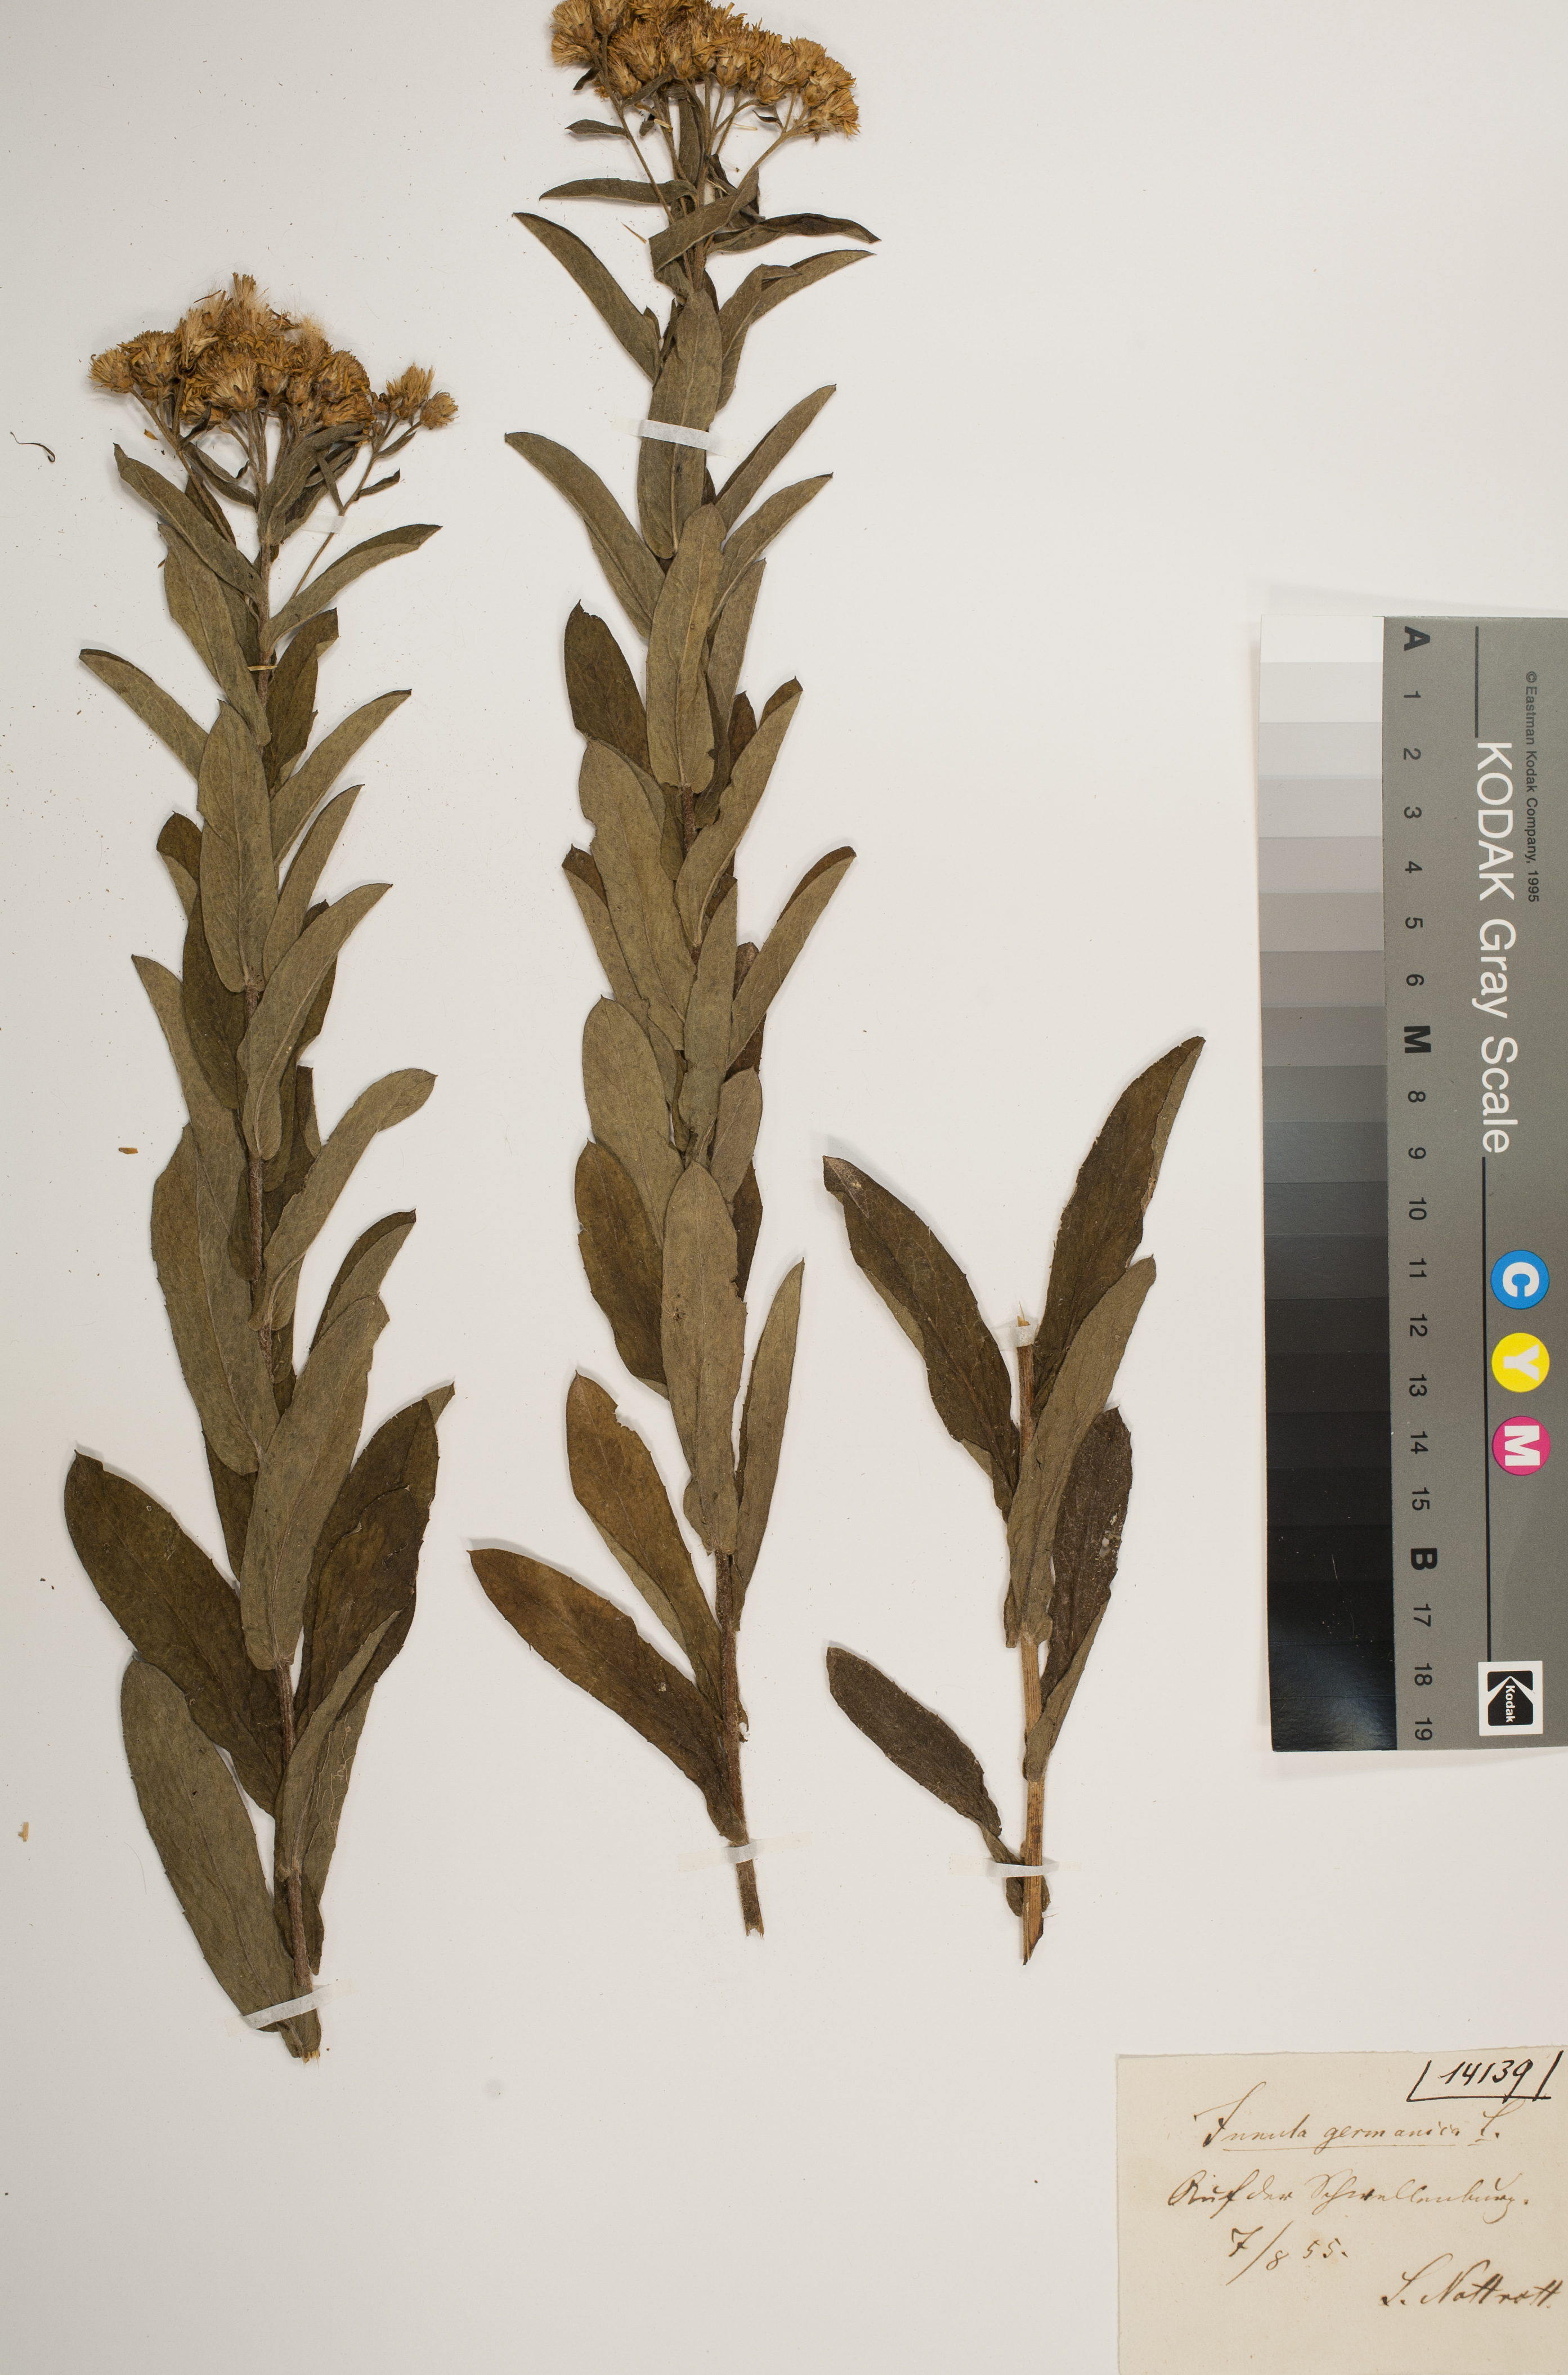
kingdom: Plantae
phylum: Tracheophyta
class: Magnoliopsida
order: Asterales
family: Asteraceae
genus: Pentanema
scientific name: Pentanema germanicum
